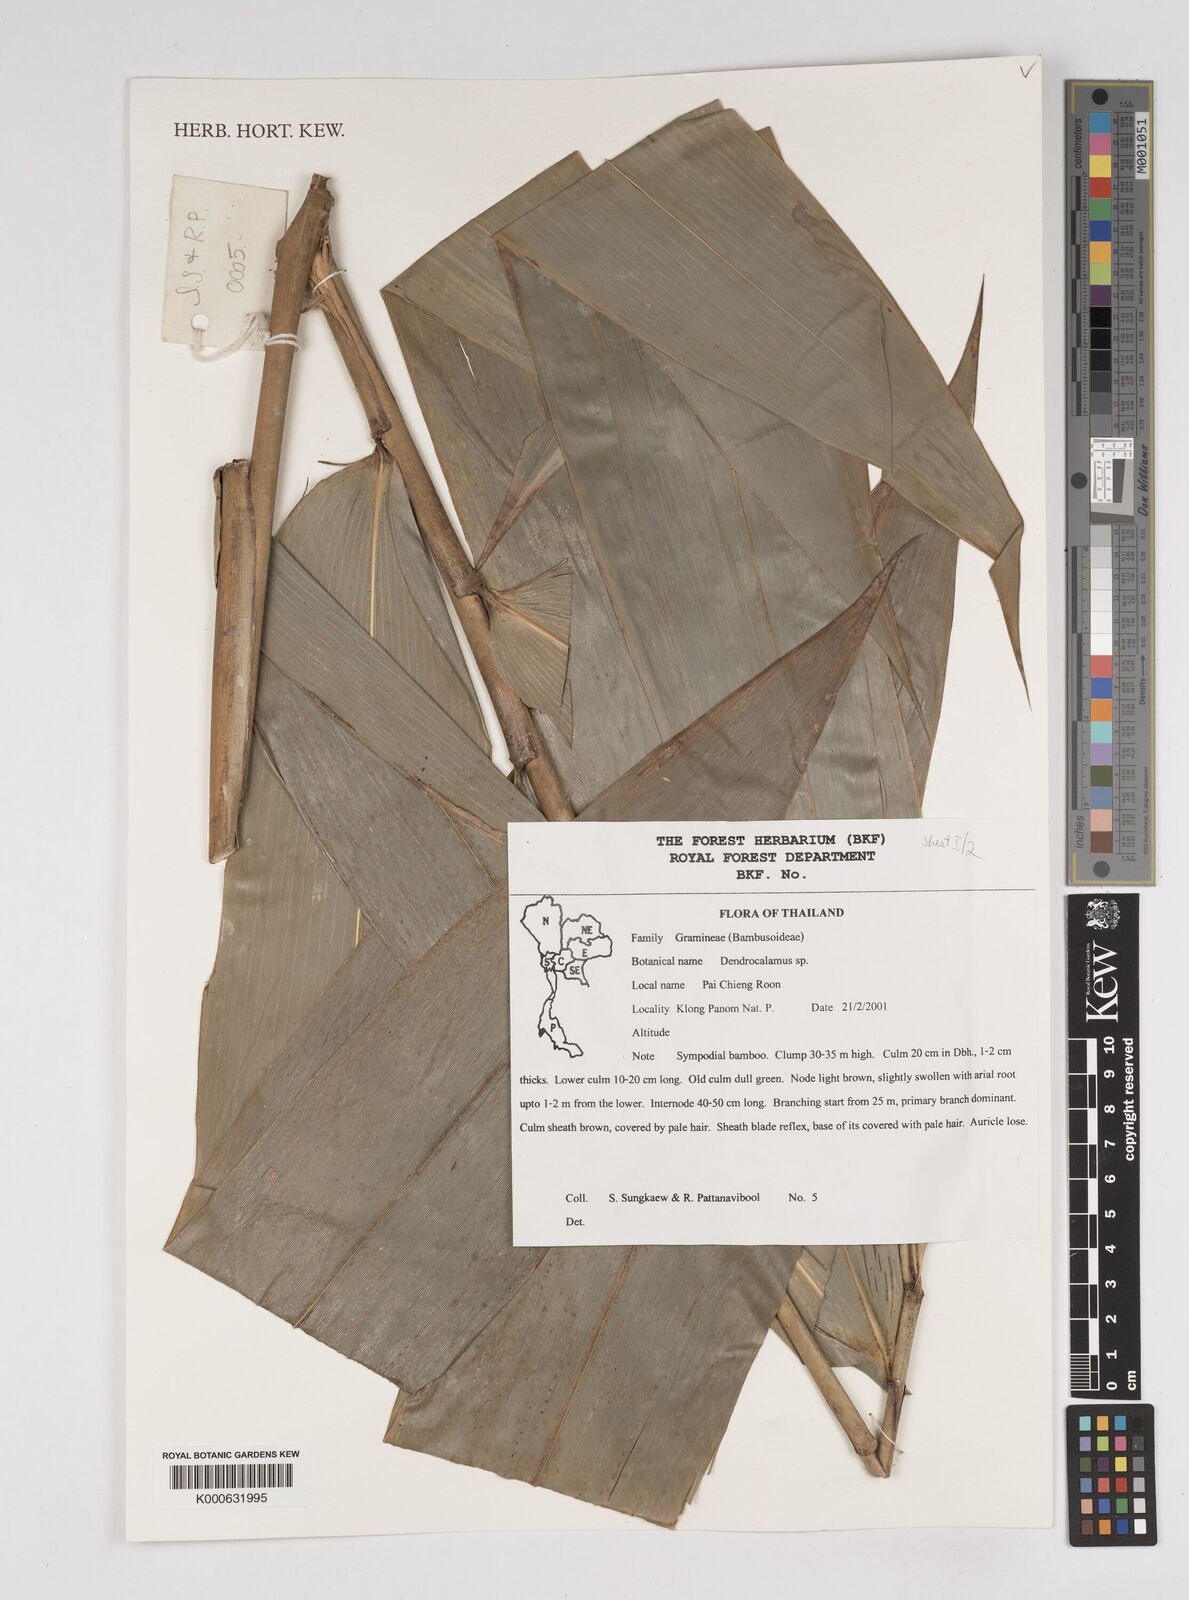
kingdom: Plantae
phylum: Tracheophyta
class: Liliopsida
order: Poales
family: Poaceae
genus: Dendrocalamus
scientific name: Dendrocalamus
